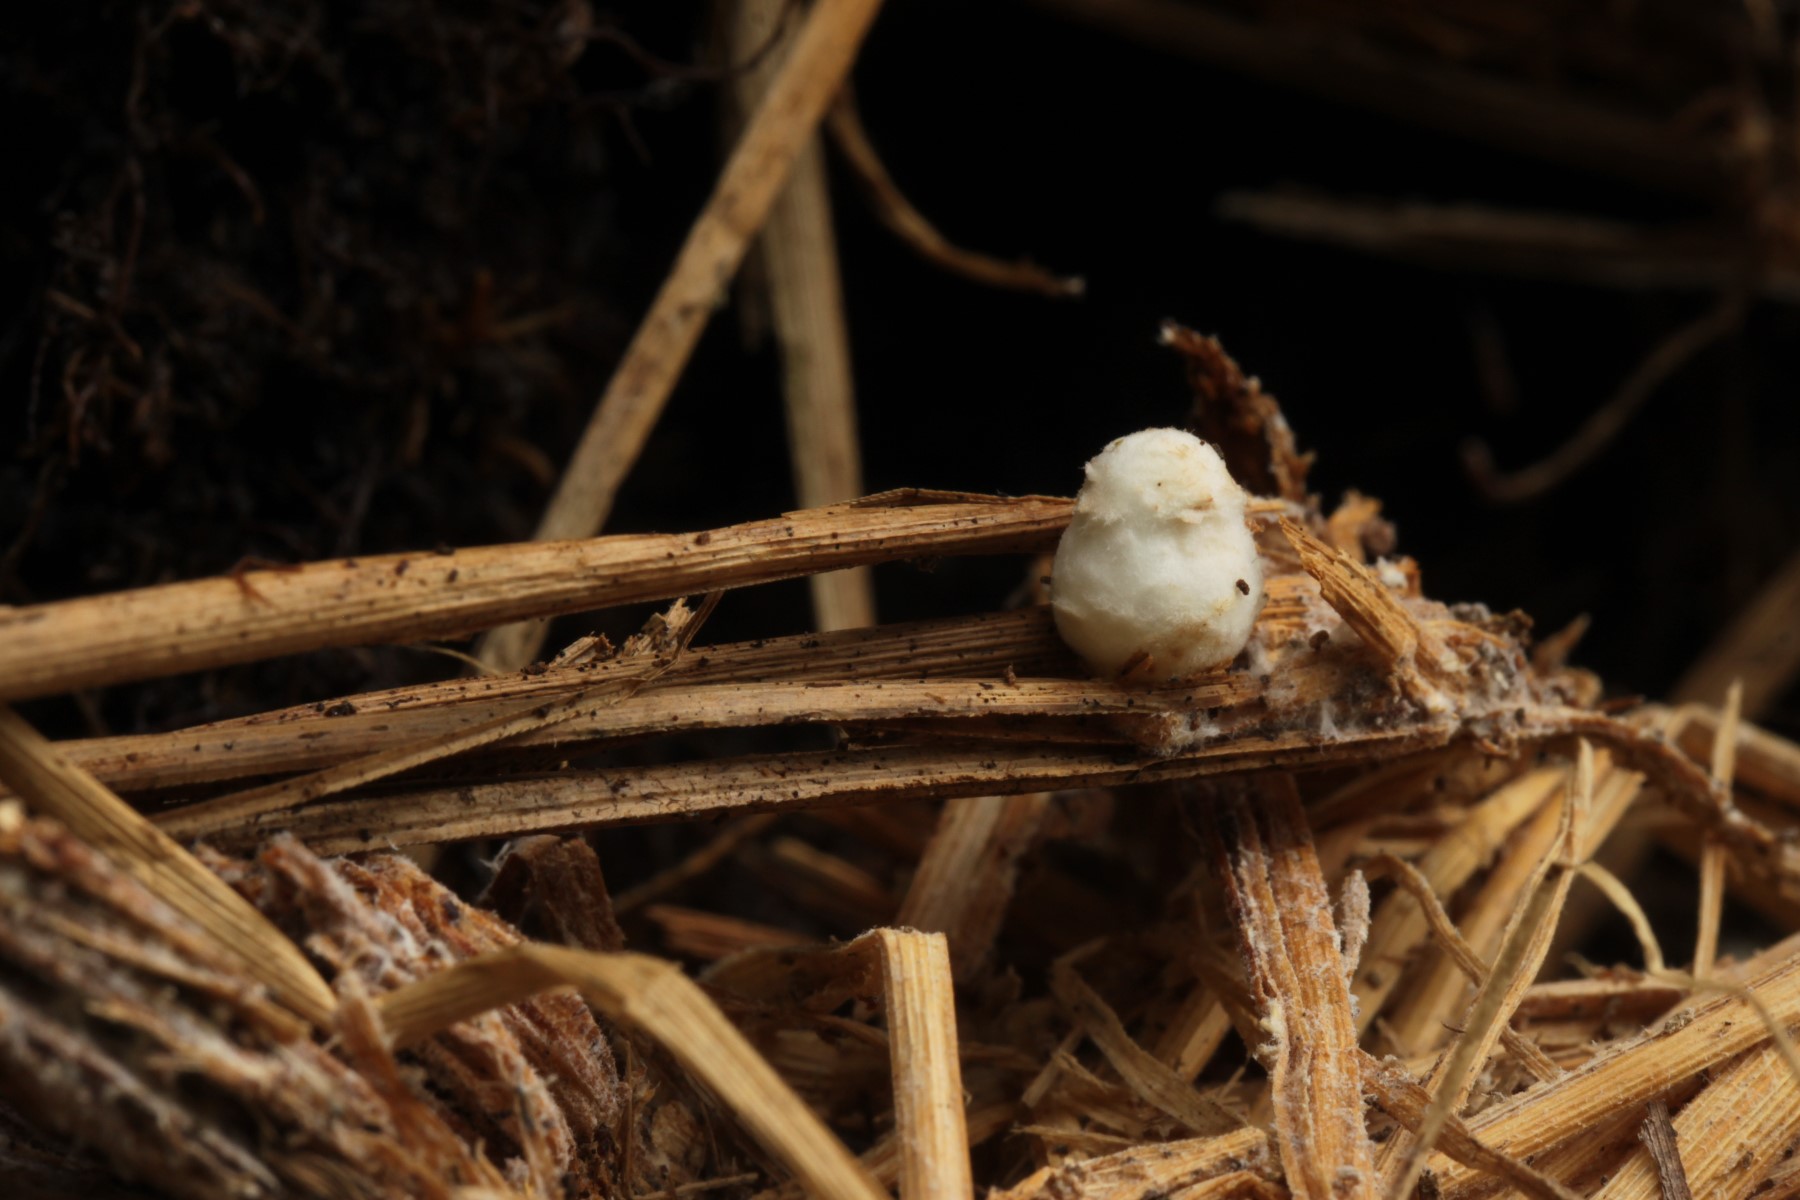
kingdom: Fungi
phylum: Basidiomycota
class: Agaricomycetes
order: Agaricales
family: Psathyrellaceae
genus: Coprinopsis
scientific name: Coprinopsis
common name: blækhat
